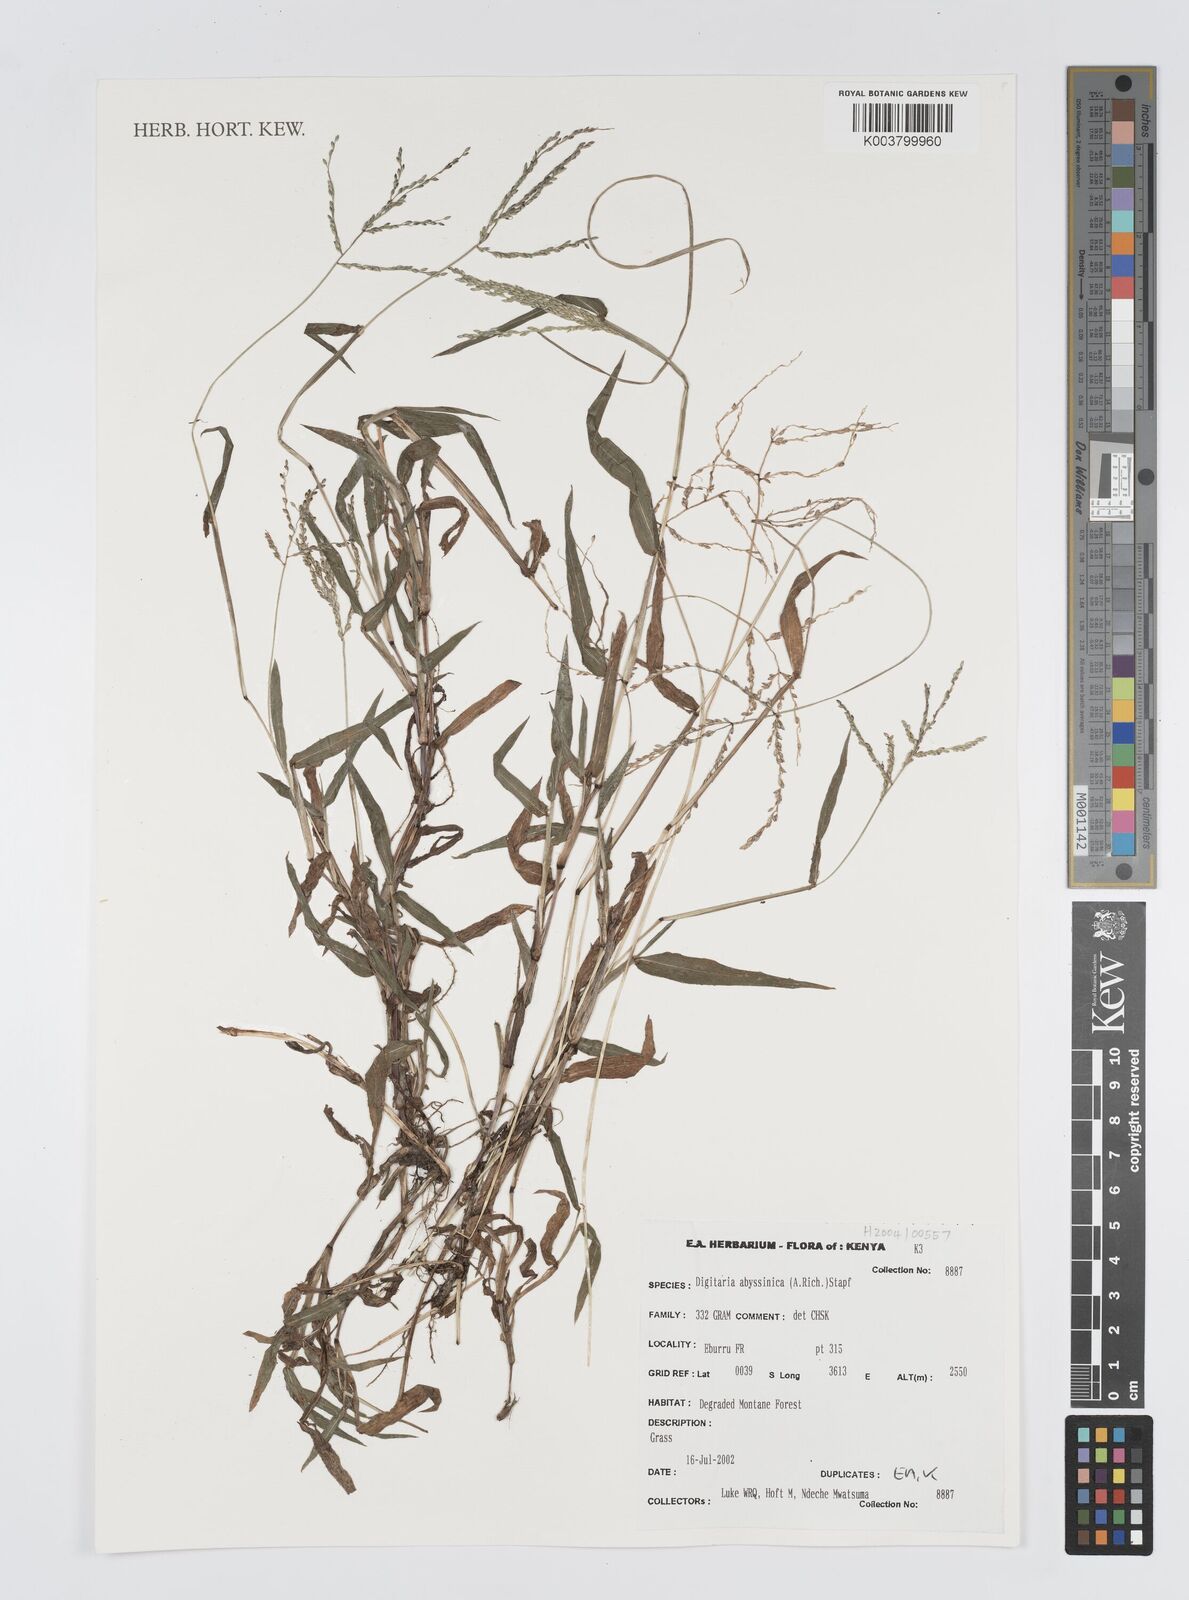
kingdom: Plantae
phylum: Tracheophyta
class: Liliopsida
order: Poales
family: Poaceae
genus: Digitaria
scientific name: Digitaria abyssinica
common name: African couchgrass
